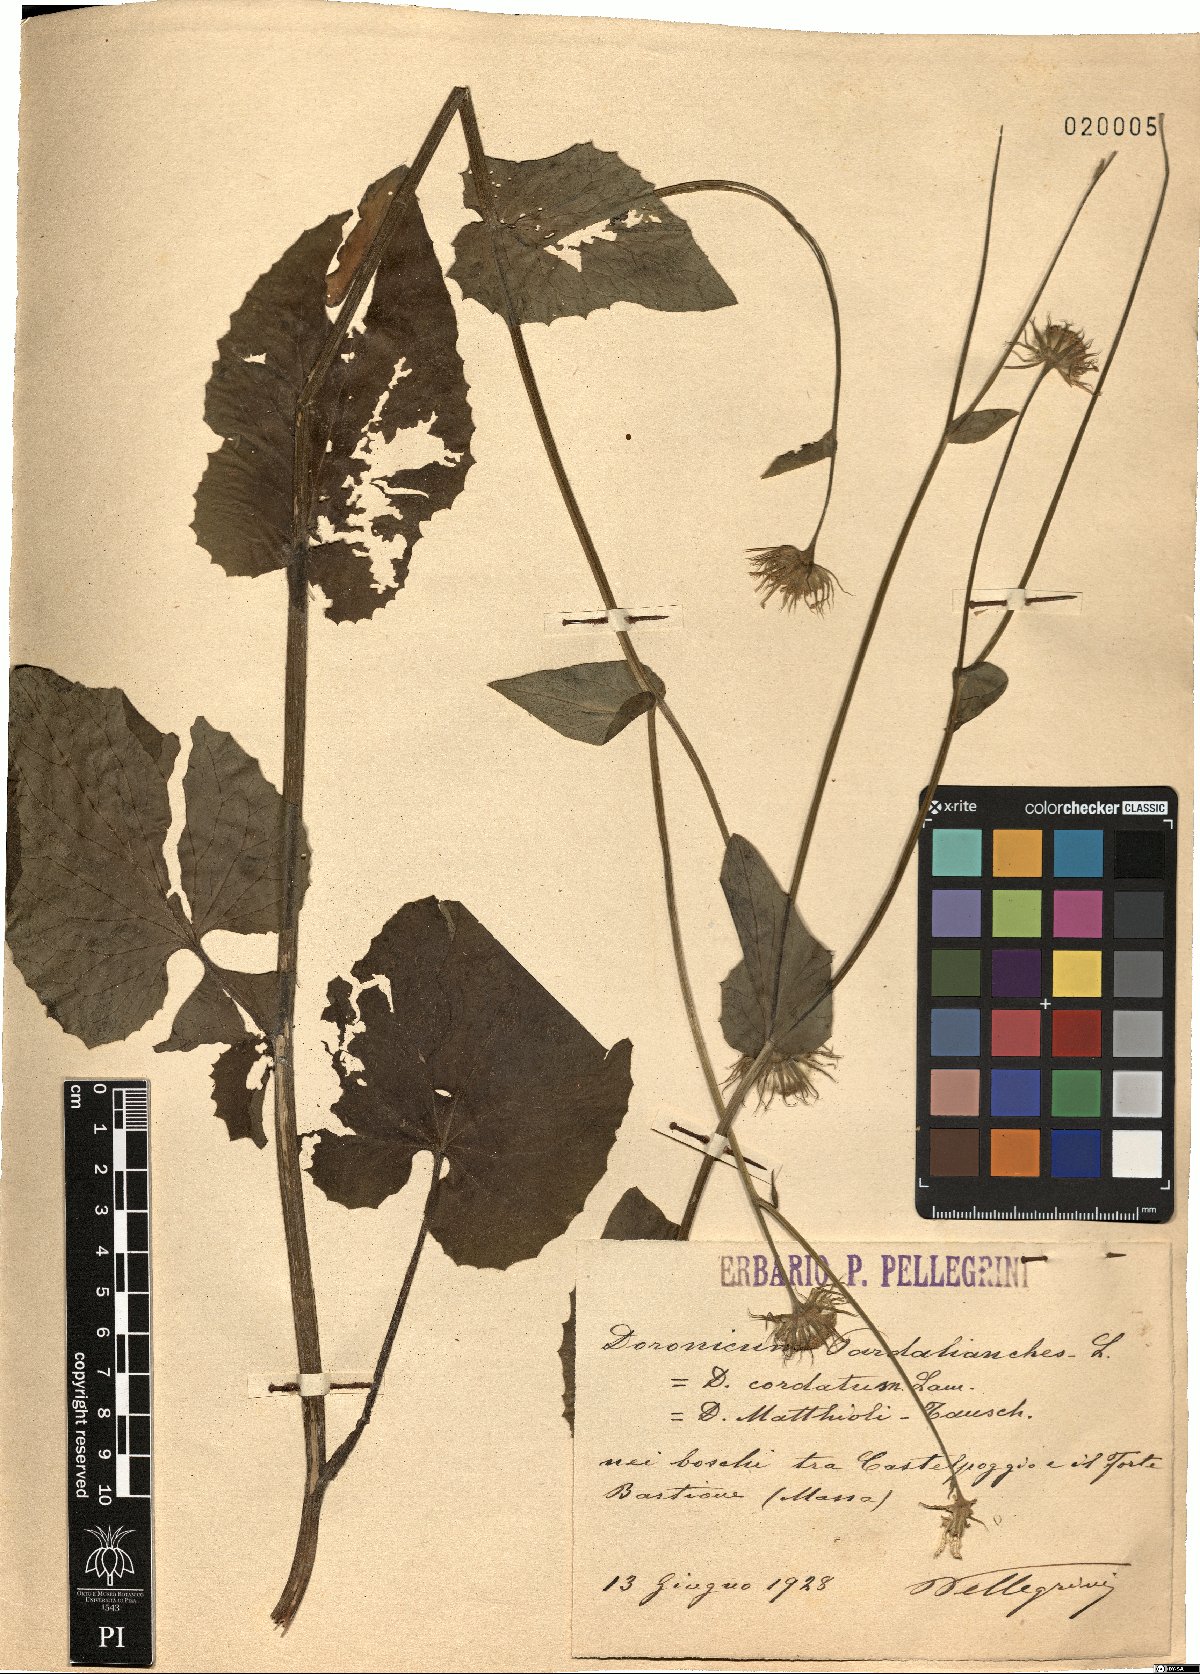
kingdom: Plantae
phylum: Tracheophyta
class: Magnoliopsida
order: Asterales
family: Asteraceae
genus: Doronicum
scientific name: Doronicum pardalianches
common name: Leopard's-bane
